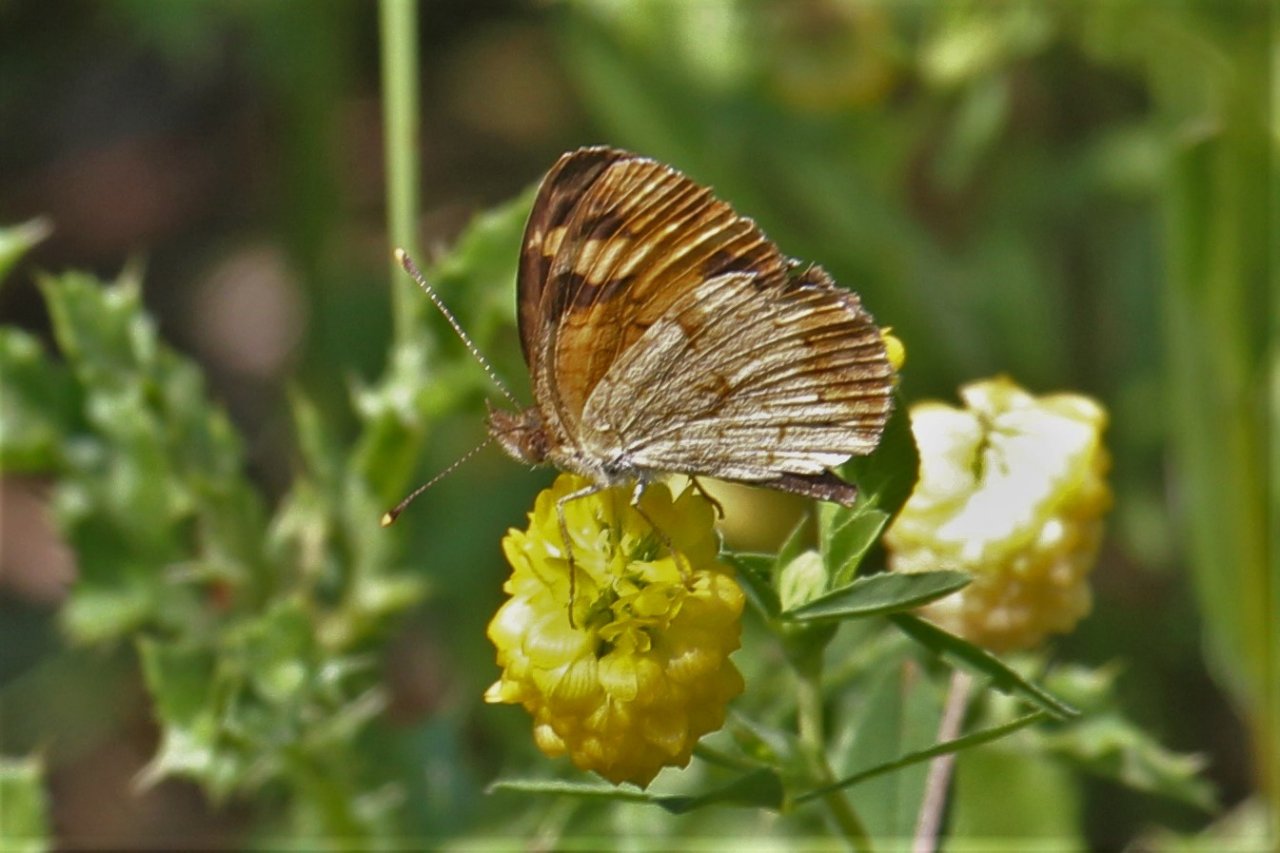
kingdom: Animalia
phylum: Arthropoda
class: Insecta
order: Lepidoptera
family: Nymphalidae
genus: Phyciodes
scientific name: Phyciodes tharos
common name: Northern Crescent
